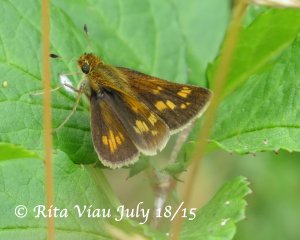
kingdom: Animalia
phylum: Arthropoda
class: Insecta
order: Lepidoptera
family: Hesperiidae
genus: Polites
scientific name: Polites coras
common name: Peck's Skipper
